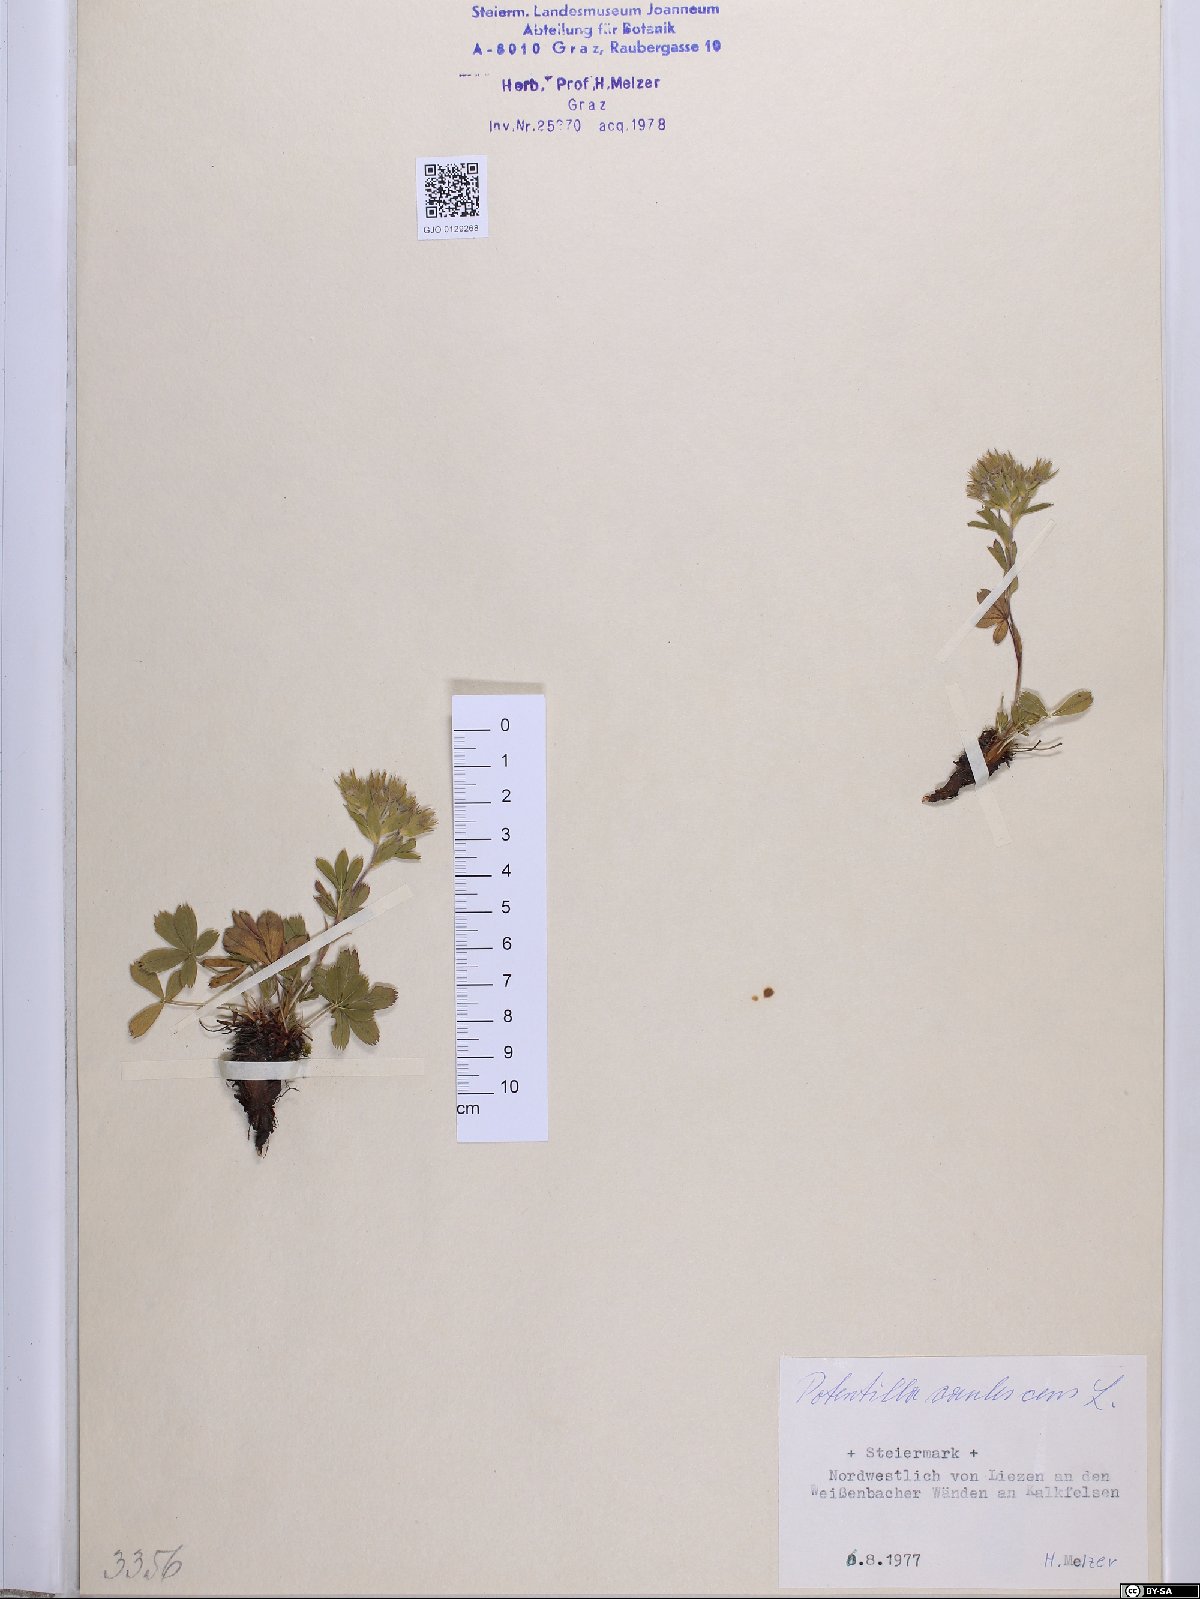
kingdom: Plantae
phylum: Tracheophyta
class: Magnoliopsida
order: Rosales
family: Rosaceae
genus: Potentilla
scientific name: Potentilla caulescens
